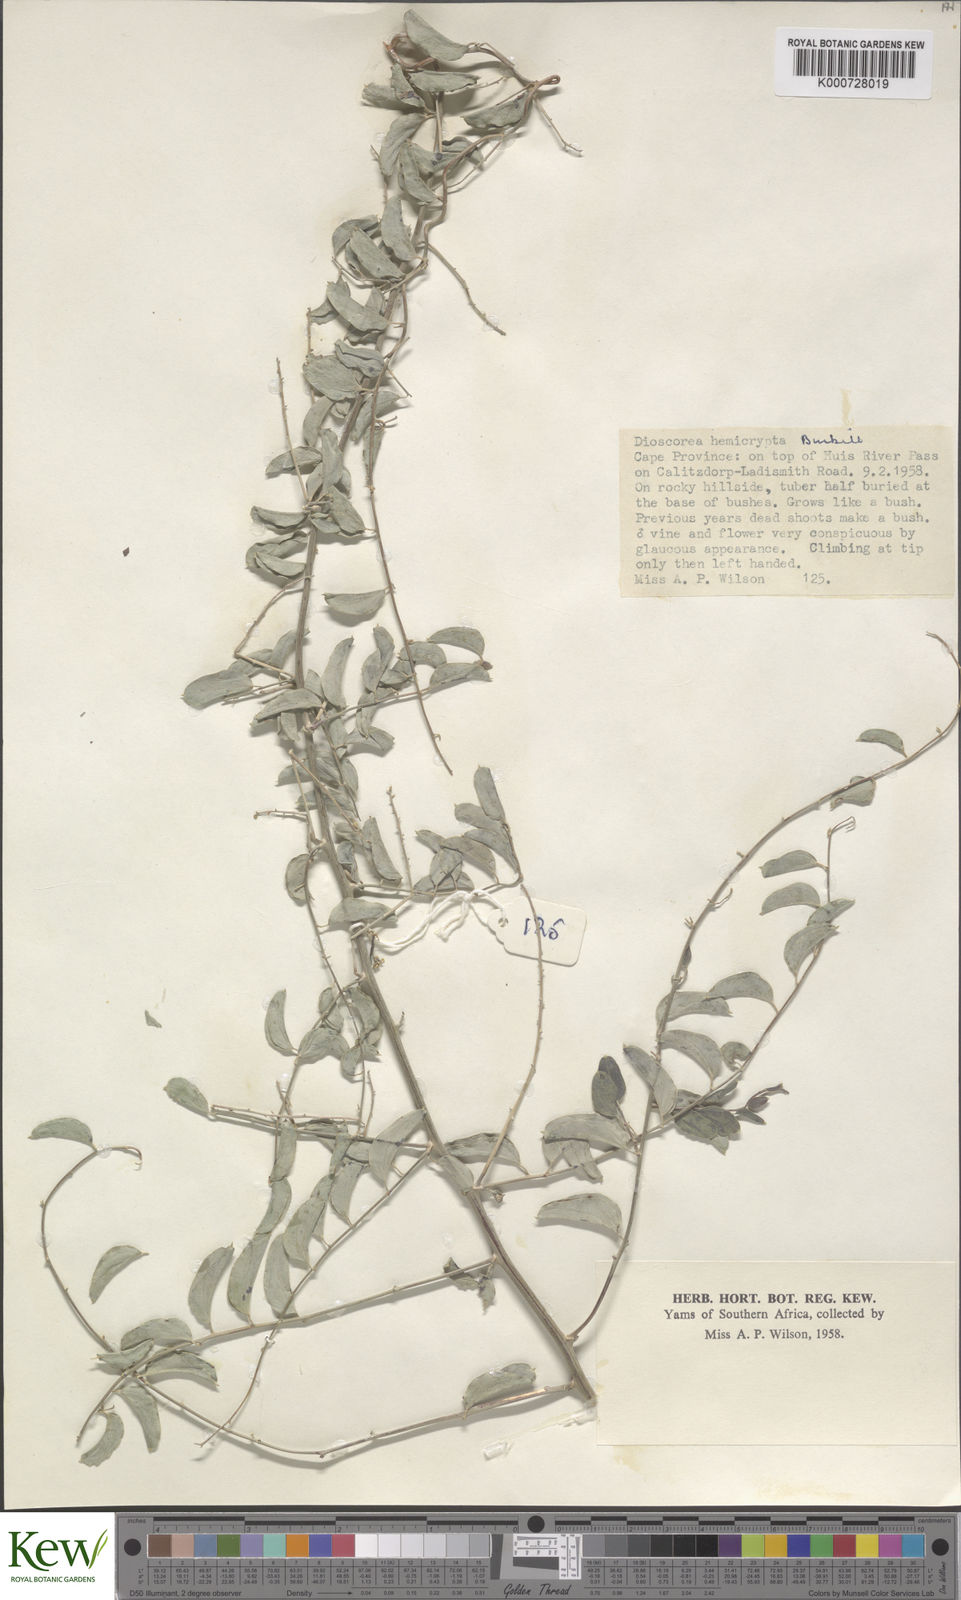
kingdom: Plantae
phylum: Tracheophyta
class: Liliopsida
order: Dioscoreales
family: Dioscoreaceae
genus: Dioscorea
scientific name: Dioscorea hemicrypta
